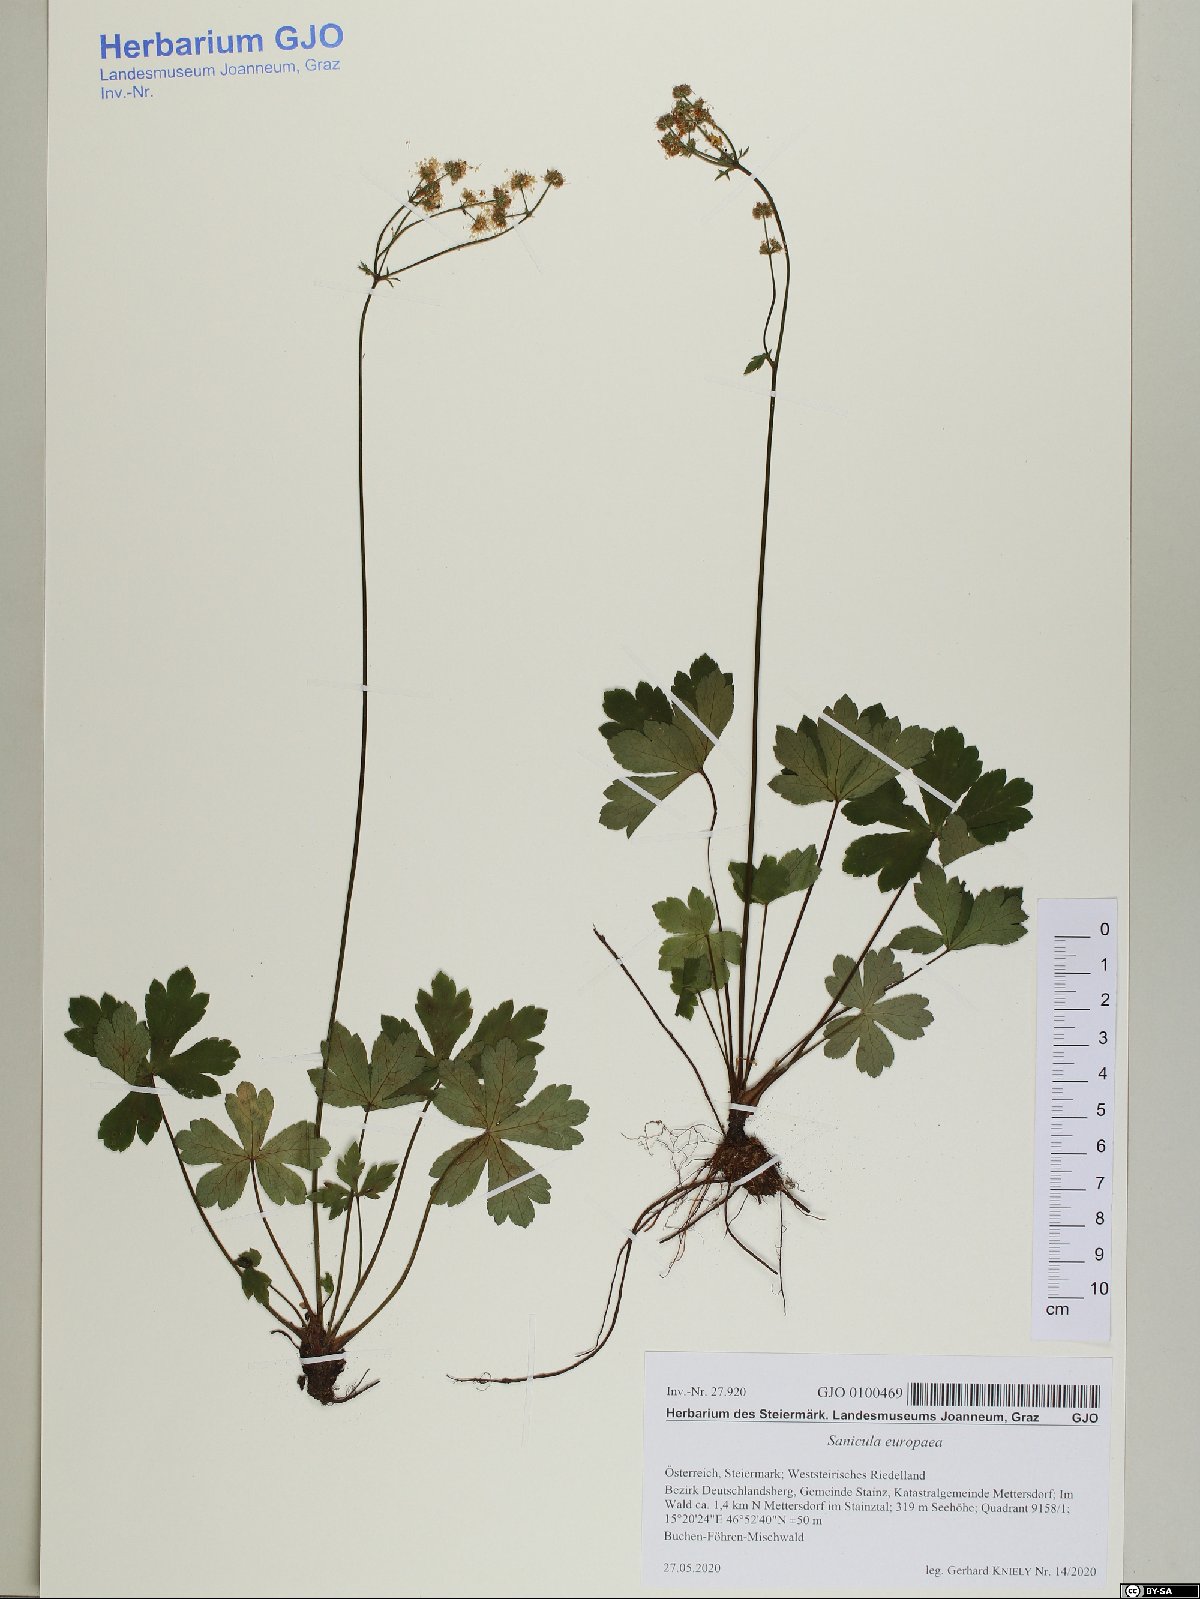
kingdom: Plantae
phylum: Tracheophyta
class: Magnoliopsida
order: Apiales
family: Apiaceae
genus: Sanicula
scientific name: Sanicula europaea
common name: Sanicle
